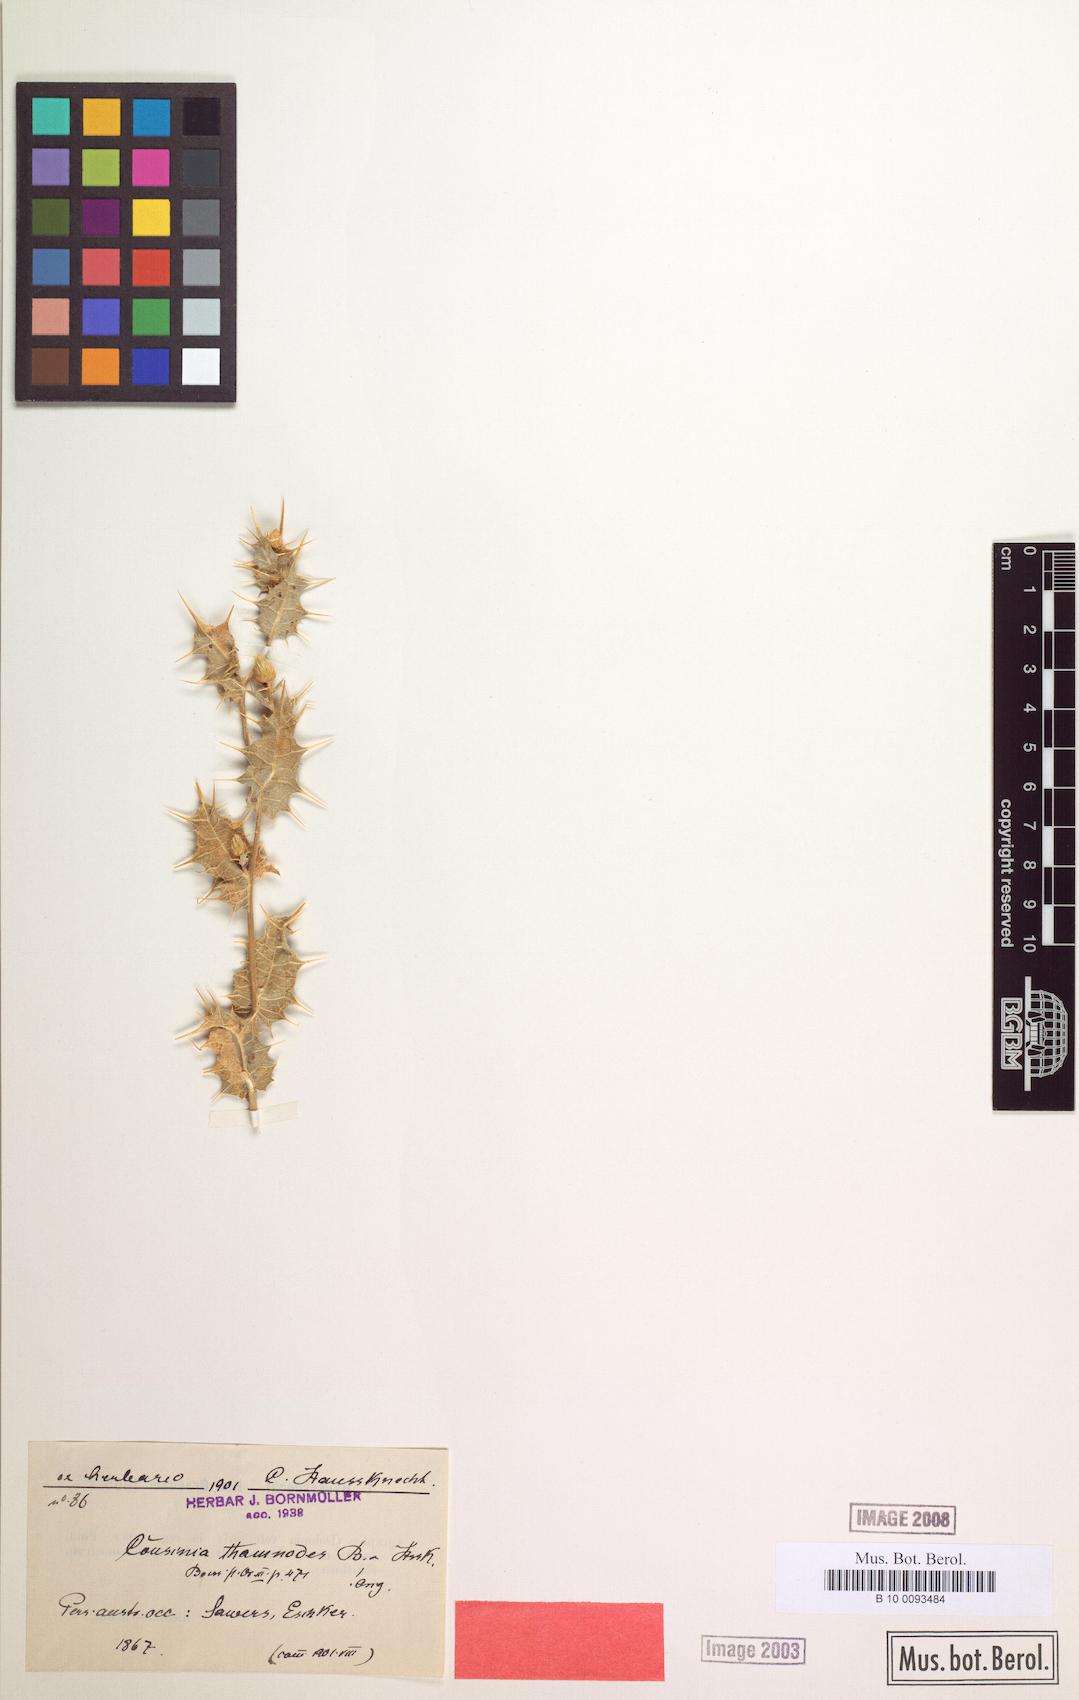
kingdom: Plantae
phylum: Tracheophyta
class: Magnoliopsida
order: Asterales
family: Asteraceae
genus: Cousinia
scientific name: Cousinia thamnodes
